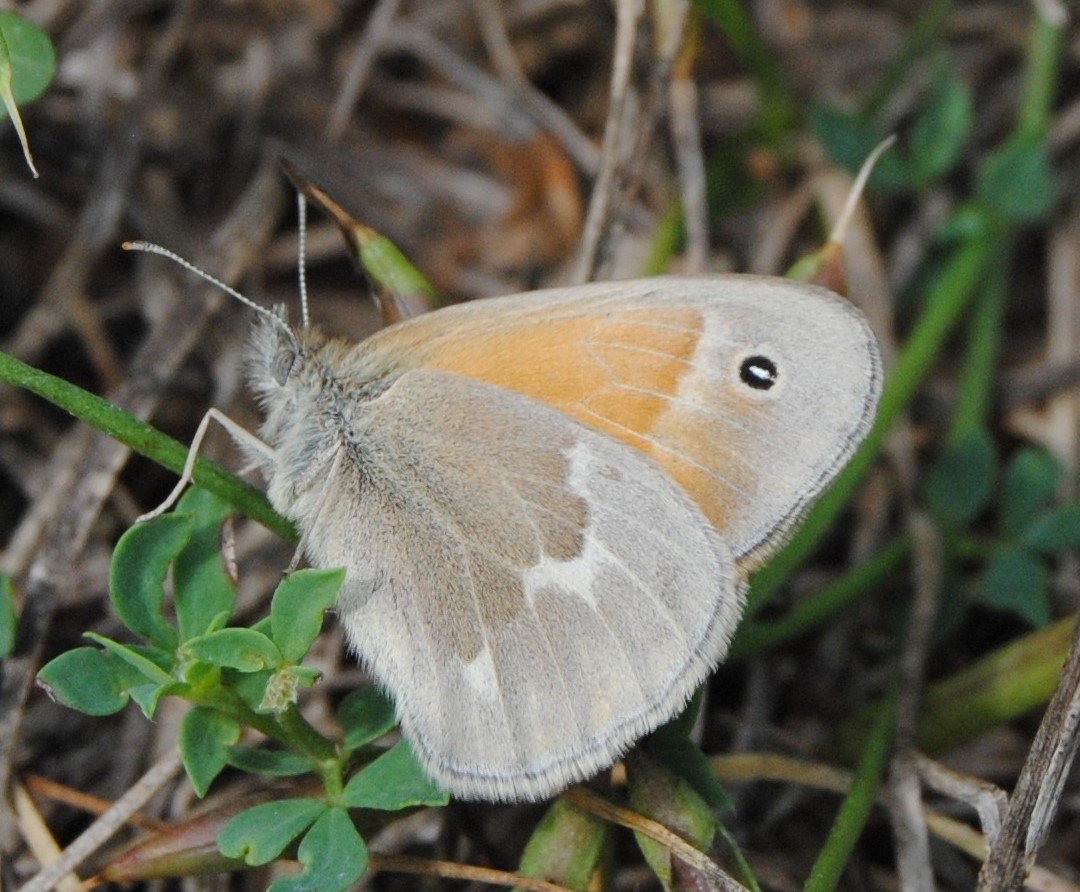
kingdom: Animalia
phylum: Arthropoda
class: Insecta
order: Lepidoptera
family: Nymphalidae
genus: Coenonympha
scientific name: Coenonympha tullia
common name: Large Heath
